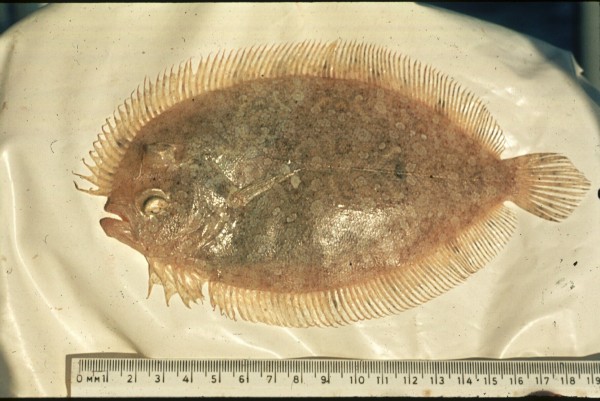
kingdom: Animalia
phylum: Chordata
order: Pleuronectiformes
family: Bothidae
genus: Bothus
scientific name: Bothus pantherinus
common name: Leopard flounder
